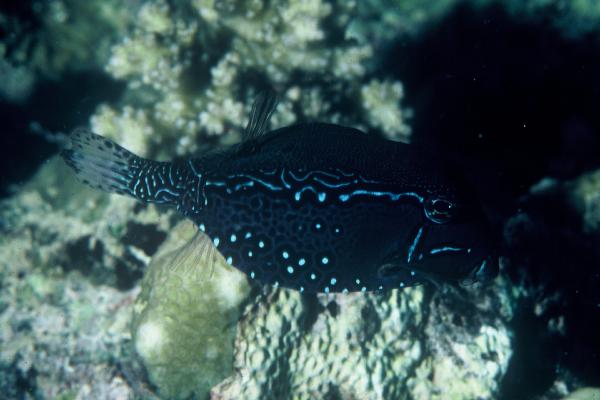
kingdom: Animalia
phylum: Chordata
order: Tetraodontiformes
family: Ostraciidae
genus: Ostracion
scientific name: Ostracion solorense
